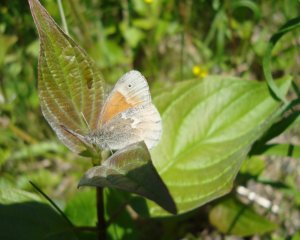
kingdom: Animalia
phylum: Arthropoda
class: Insecta
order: Lepidoptera
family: Nymphalidae
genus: Coenonympha
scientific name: Coenonympha tullia
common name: Large Heath
